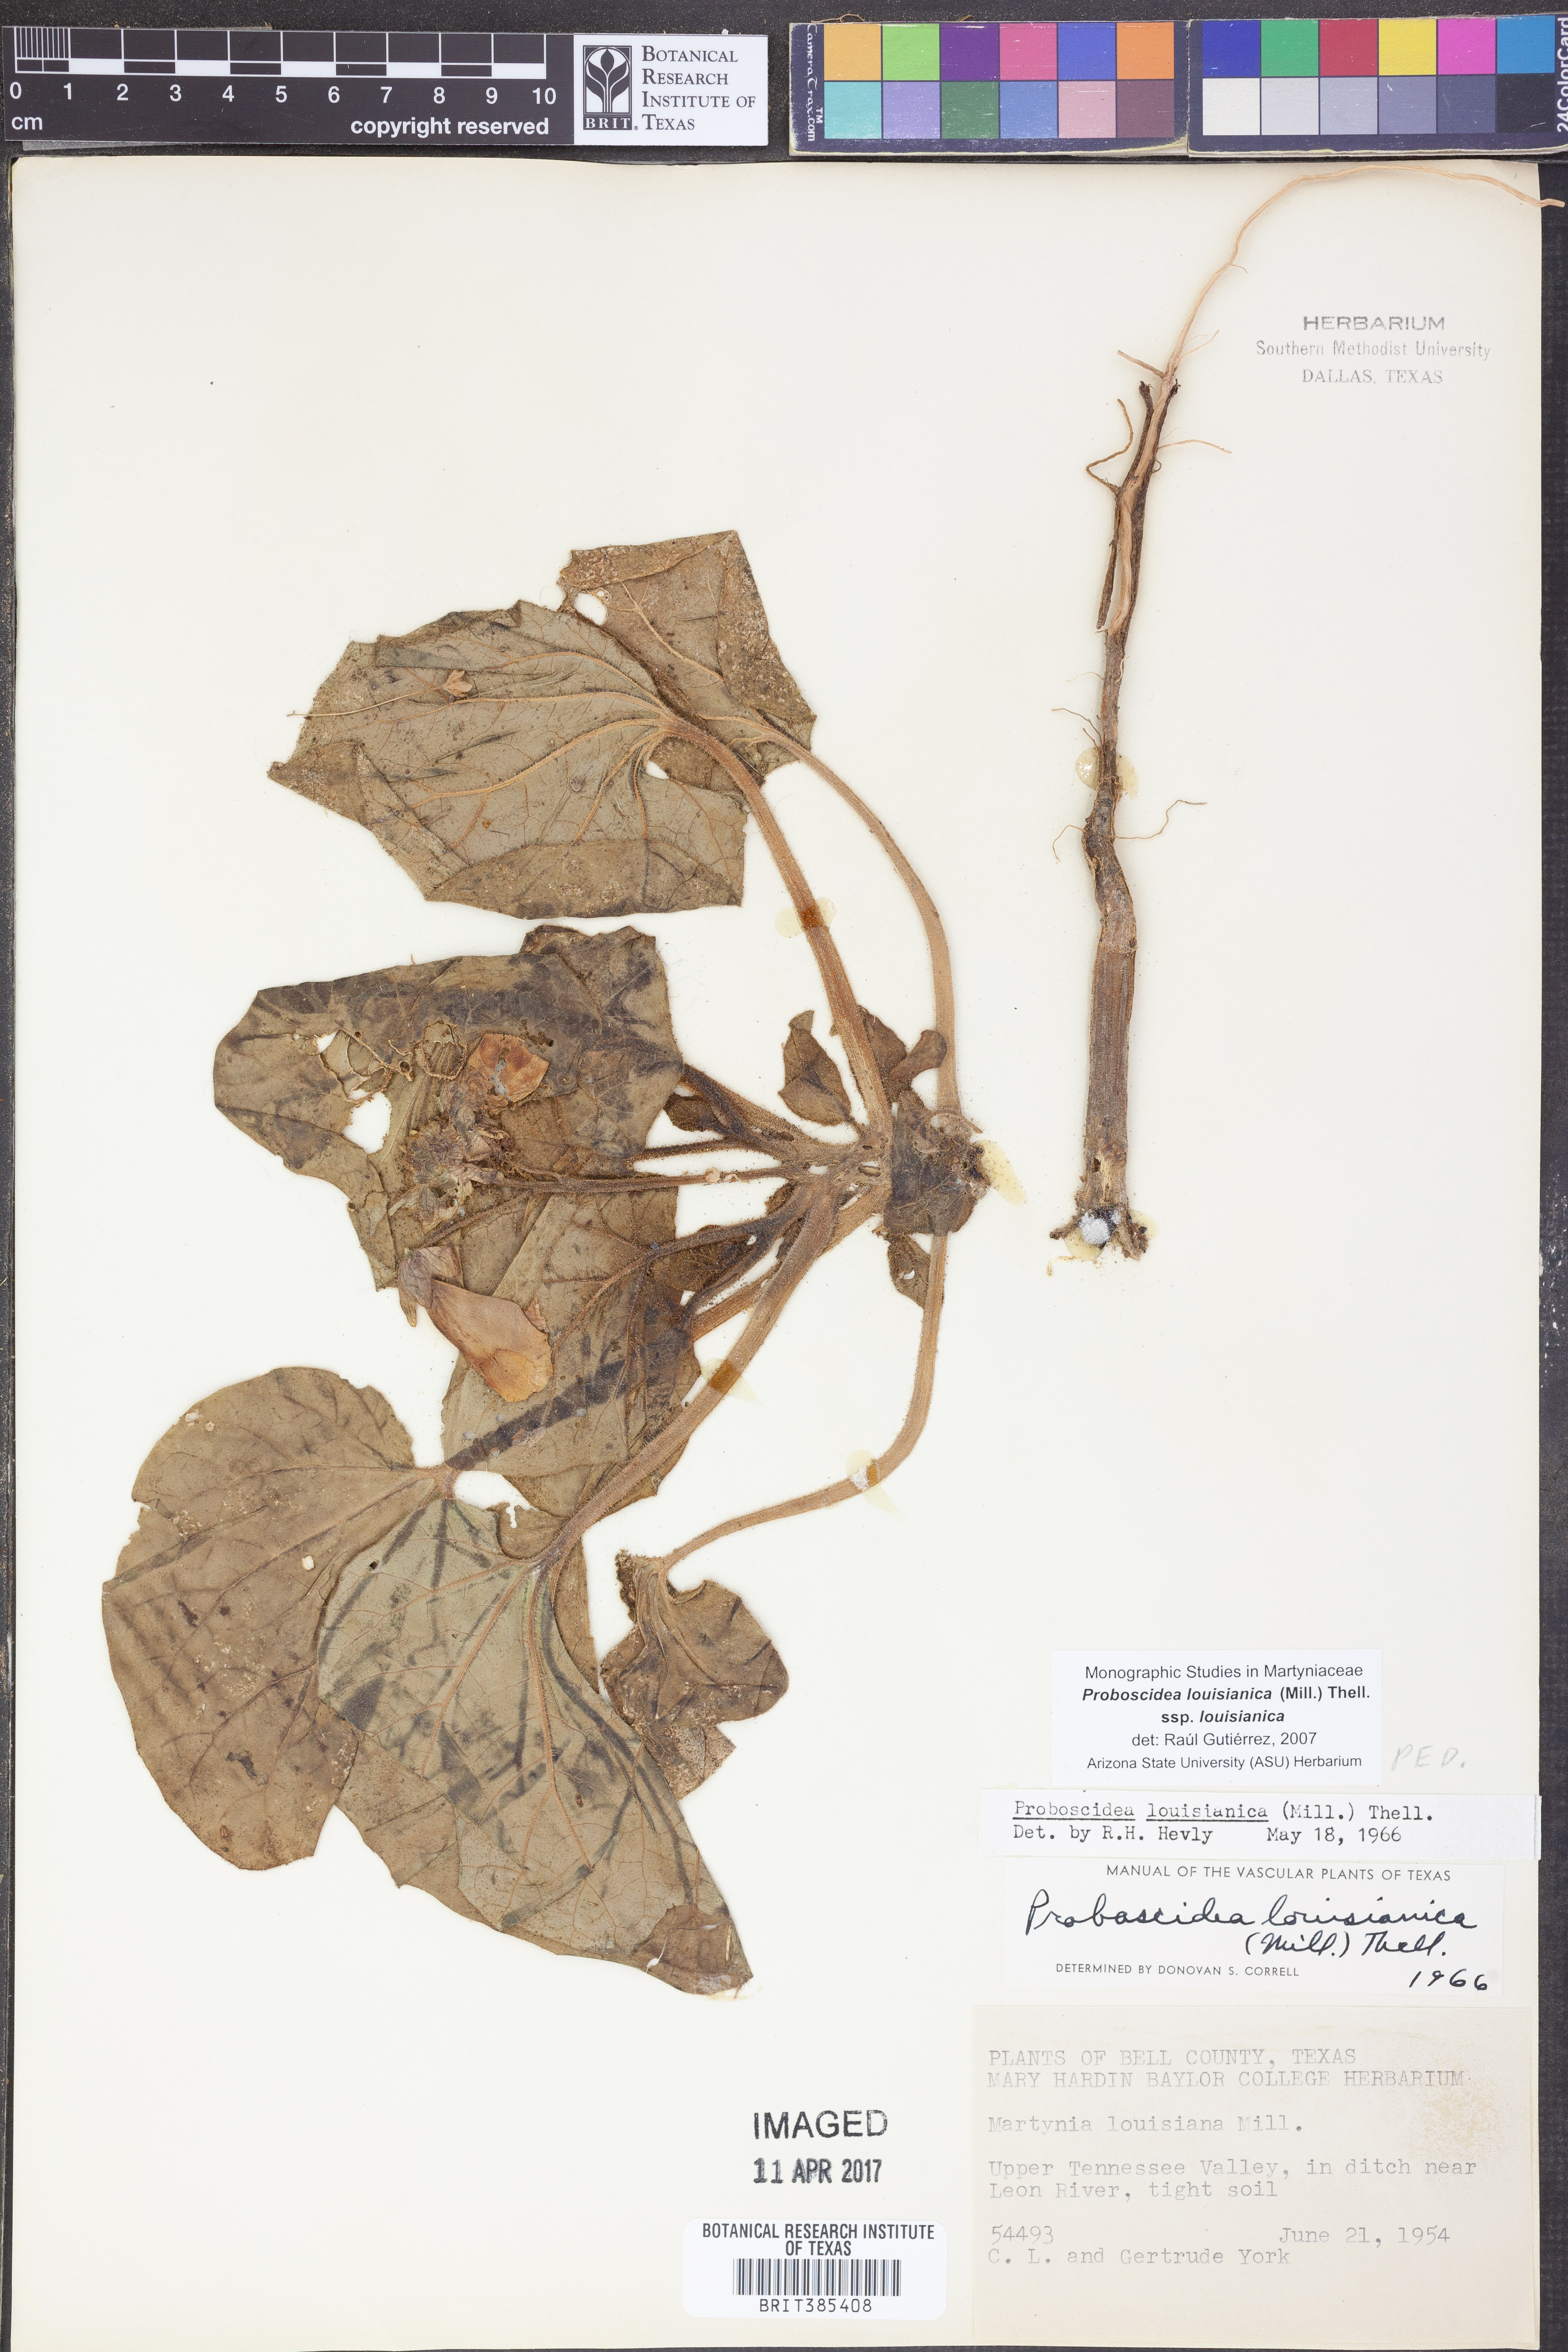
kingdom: Plantae
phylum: Tracheophyta
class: Magnoliopsida
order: Lamiales
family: Martyniaceae
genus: Proboscidea
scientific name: Proboscidea louisianica
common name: Elephant tusks
